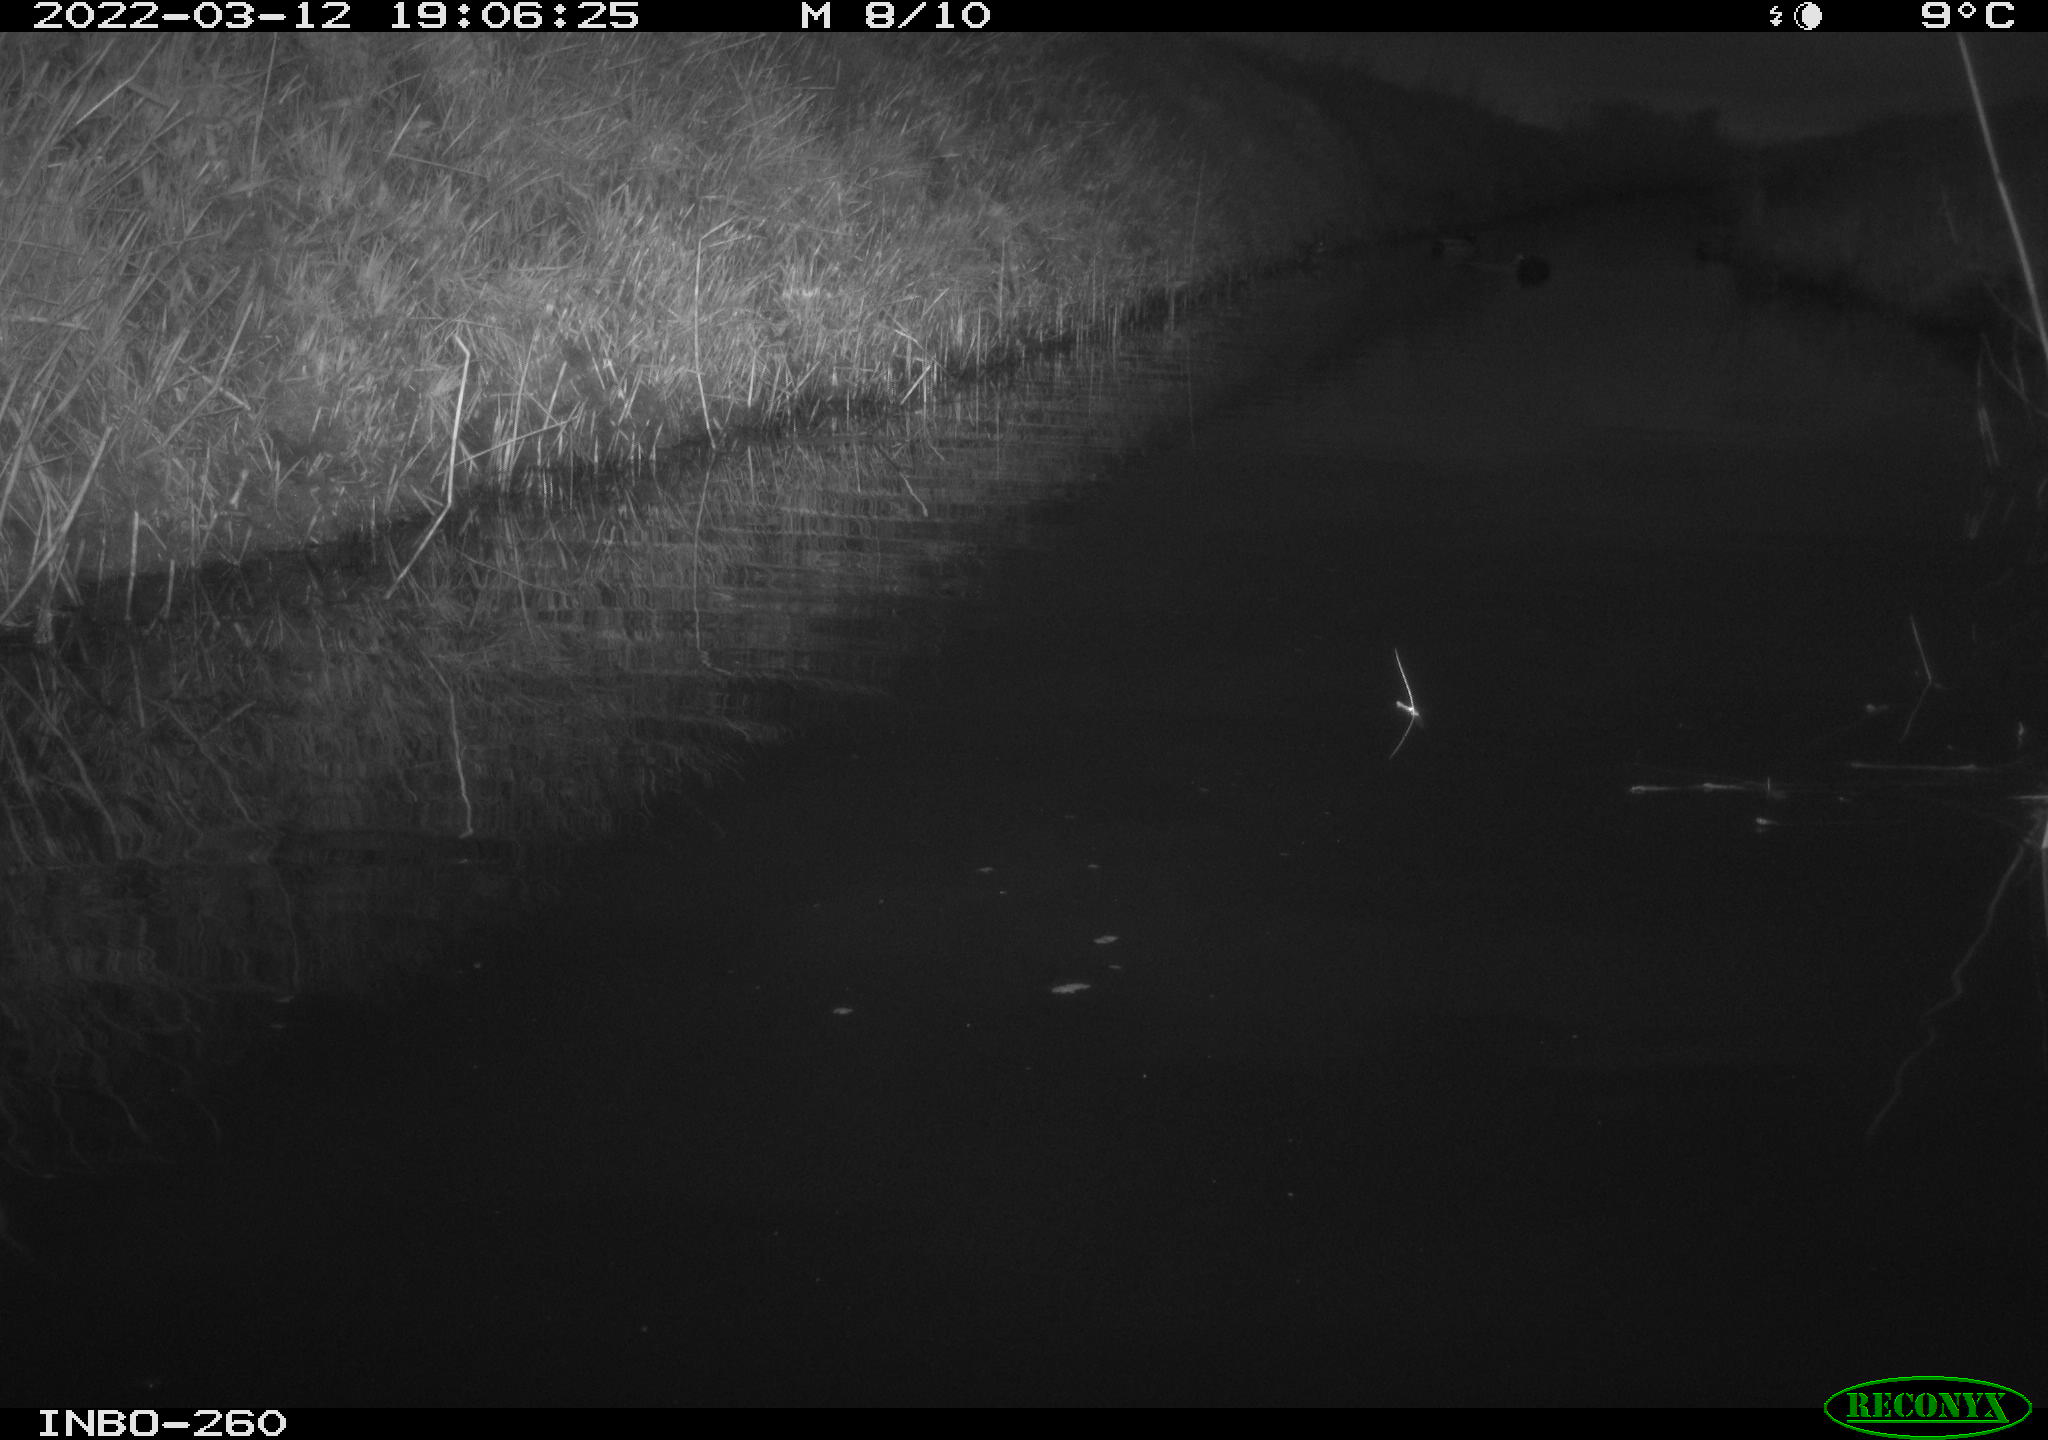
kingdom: Animalia
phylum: Chordata
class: Aves
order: Gruiformes
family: Rallidae
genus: Fulica
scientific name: Fulica atra
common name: Eurasian coot
